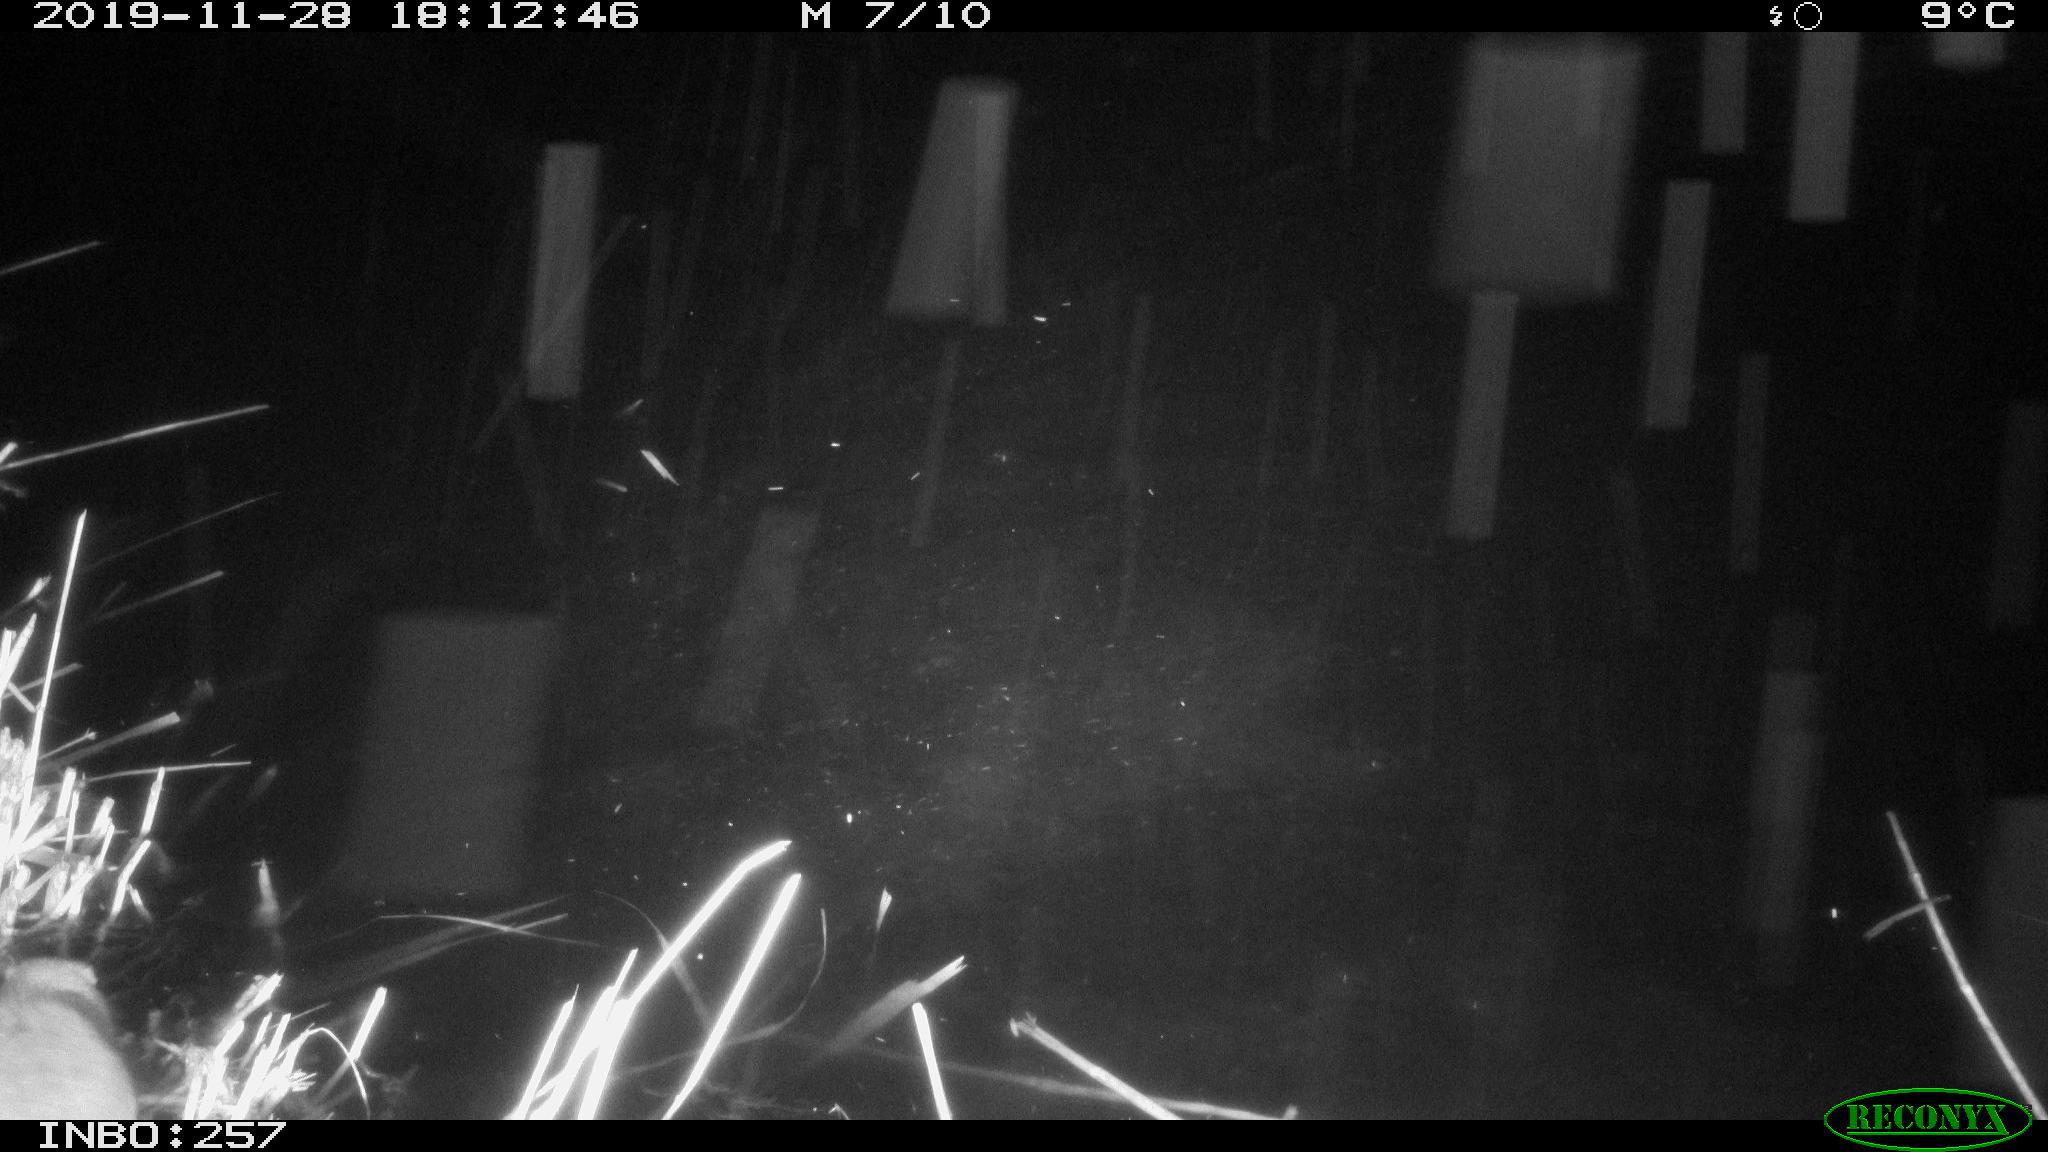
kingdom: Animalia
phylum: Chordata
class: Mammalia
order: Rodentia
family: Cricetidae
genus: Ondatra
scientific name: Ondatra zibethicus
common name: Muskrat
